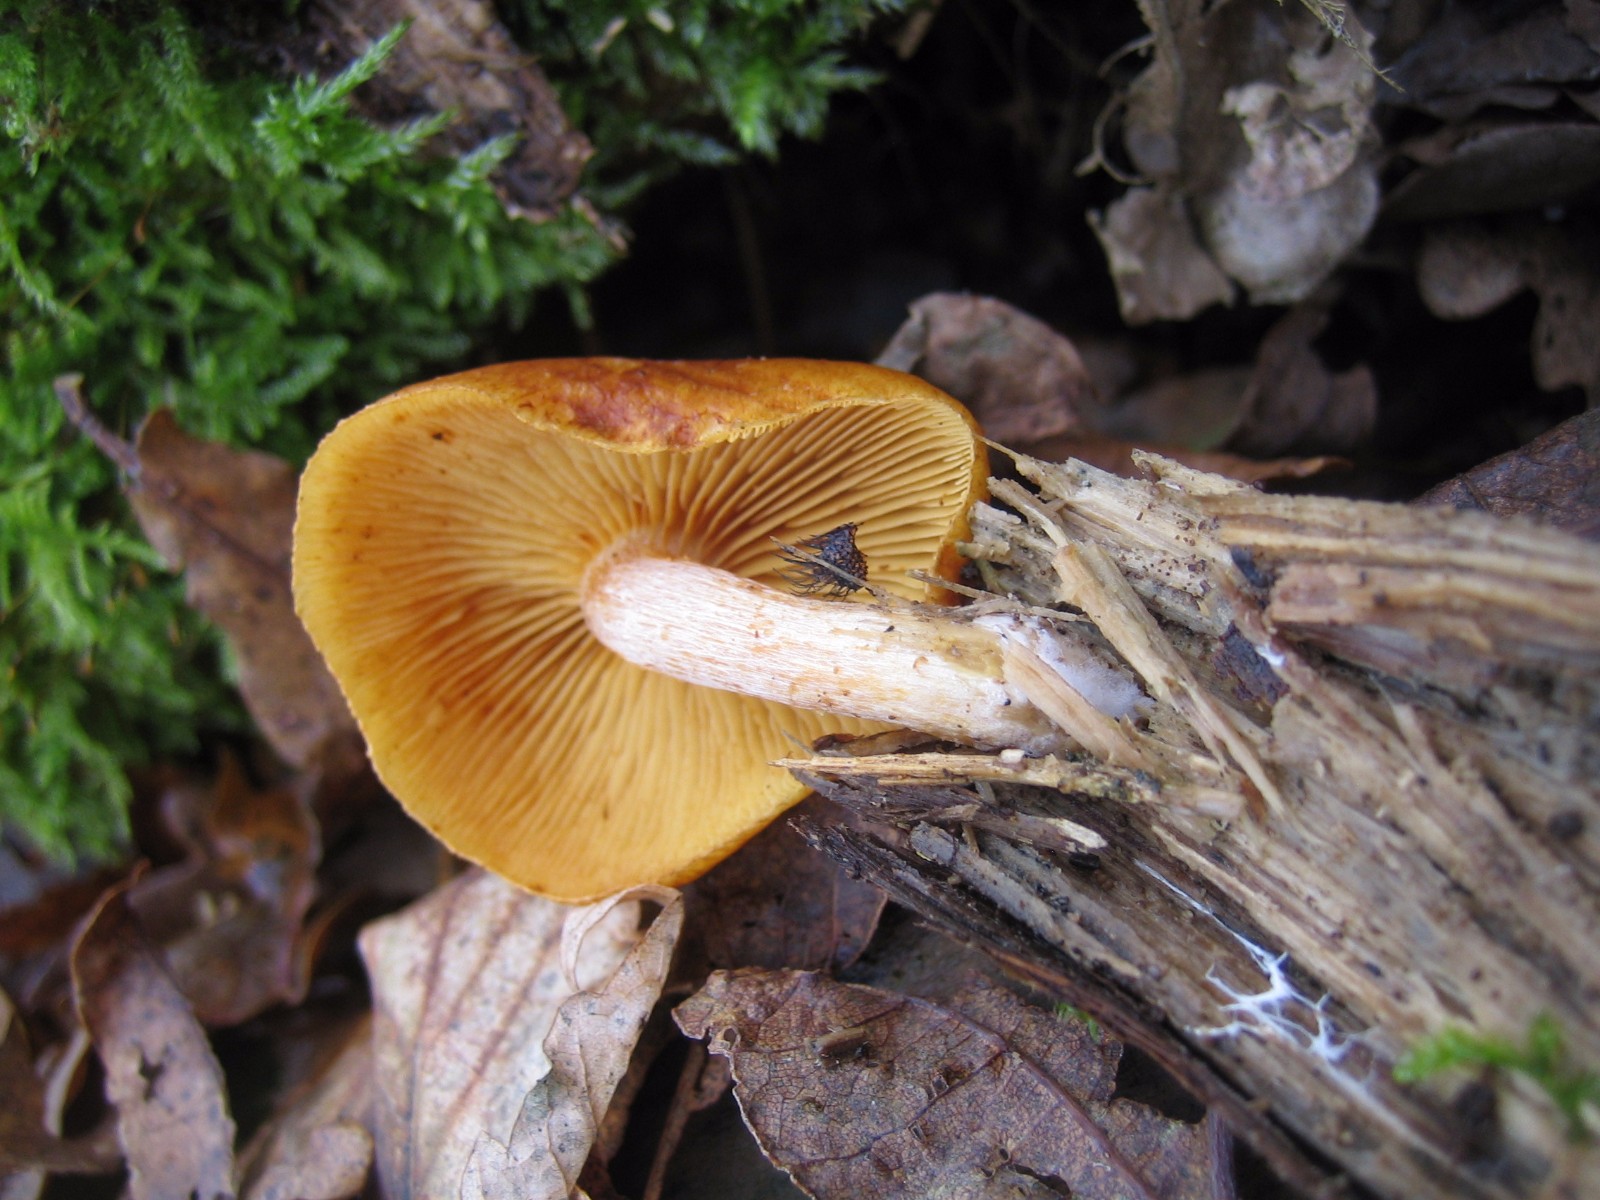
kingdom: Fungi
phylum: Basidiomycota
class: Agaricomycetes
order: Agaricales
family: Hymenogastraceae
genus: Gymnopilus
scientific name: Gymnopilus penetrans
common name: plettet flammehat
